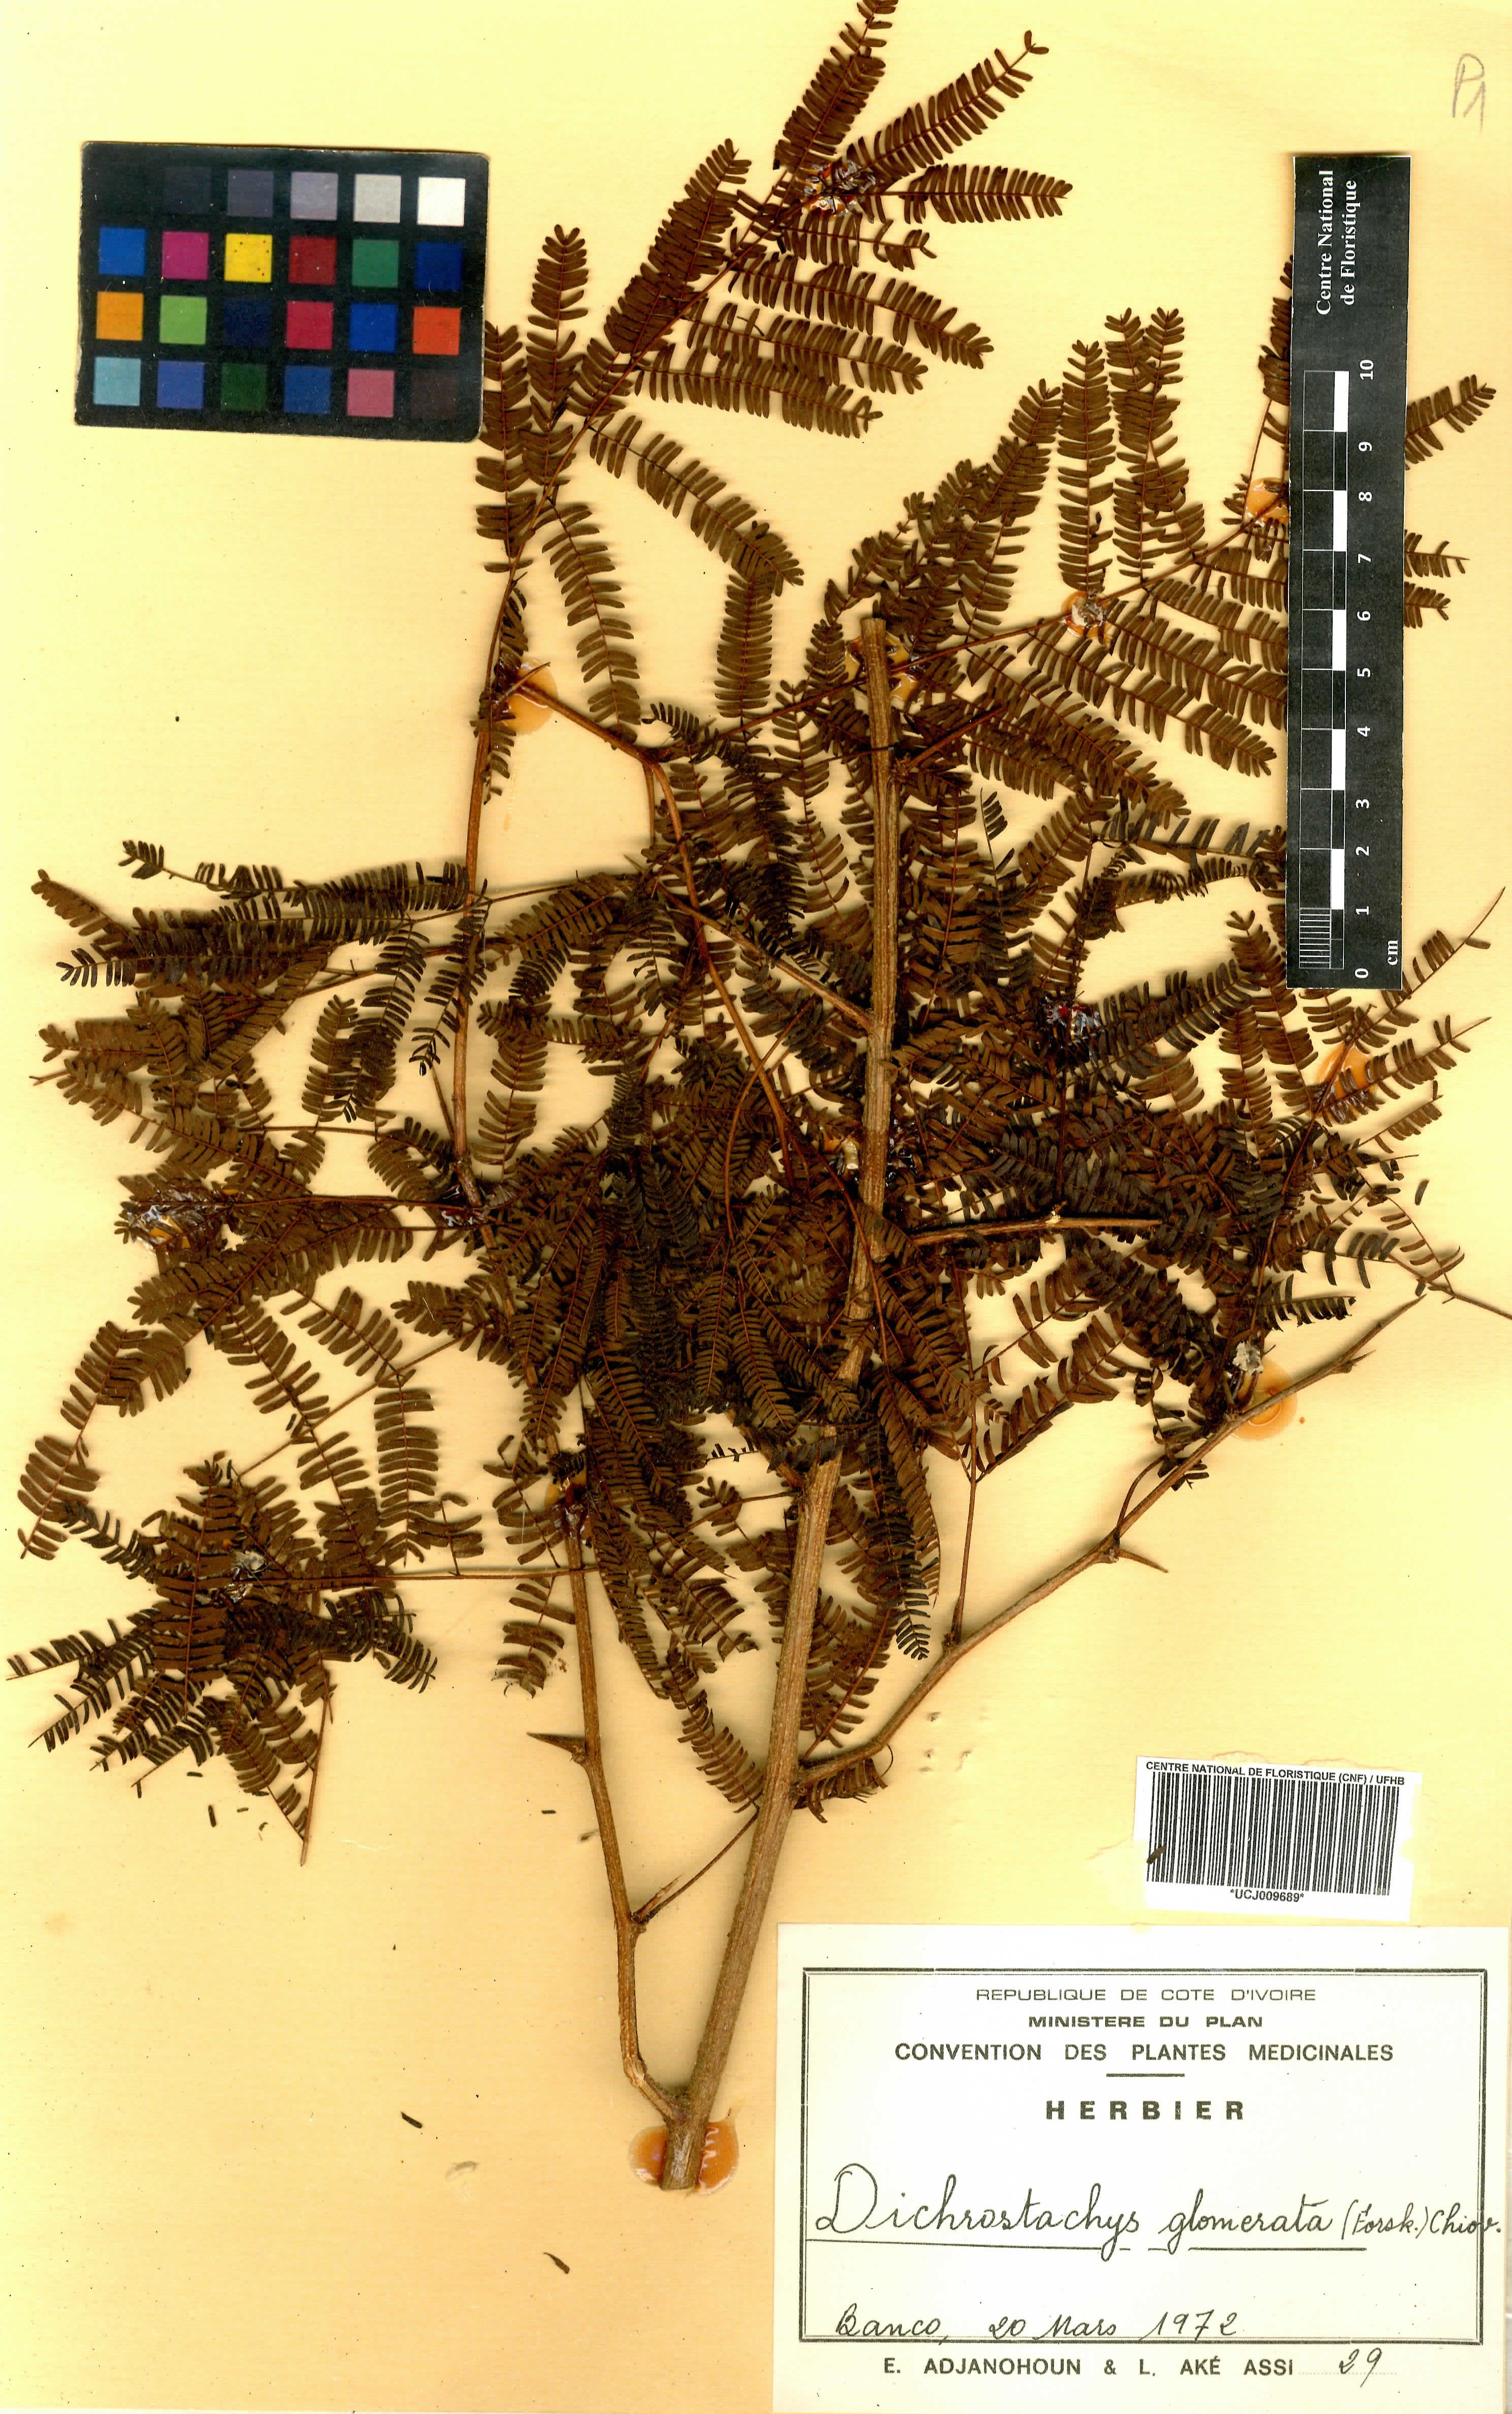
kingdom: Plantae
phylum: Tracheophyta
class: Magnoliopsida
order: Fabales
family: Fabaceae
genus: Dichrostachys
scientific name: Dichrostachys cinerea
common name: Sicklebush
